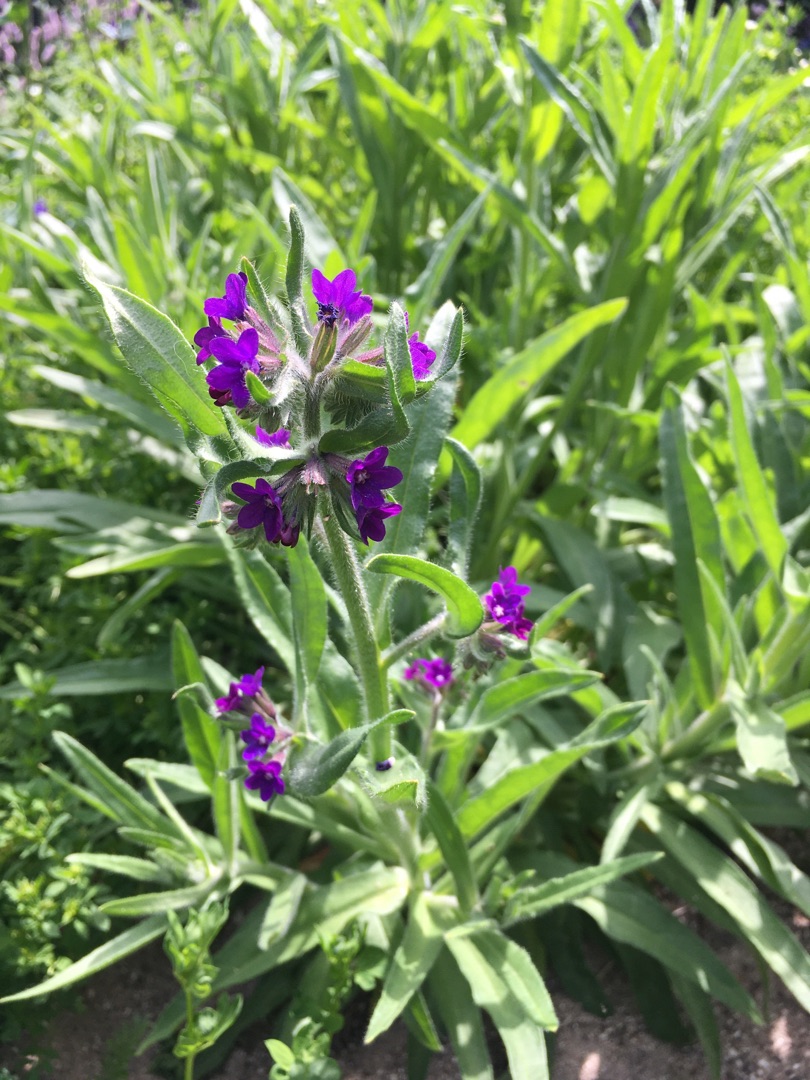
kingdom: Plantae
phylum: Tracheophyta
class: Magnoliopsida
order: Boraginales
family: Boraginaceae
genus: Anchusa
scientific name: Anchusa officinalis
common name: Læge-oksetunge
